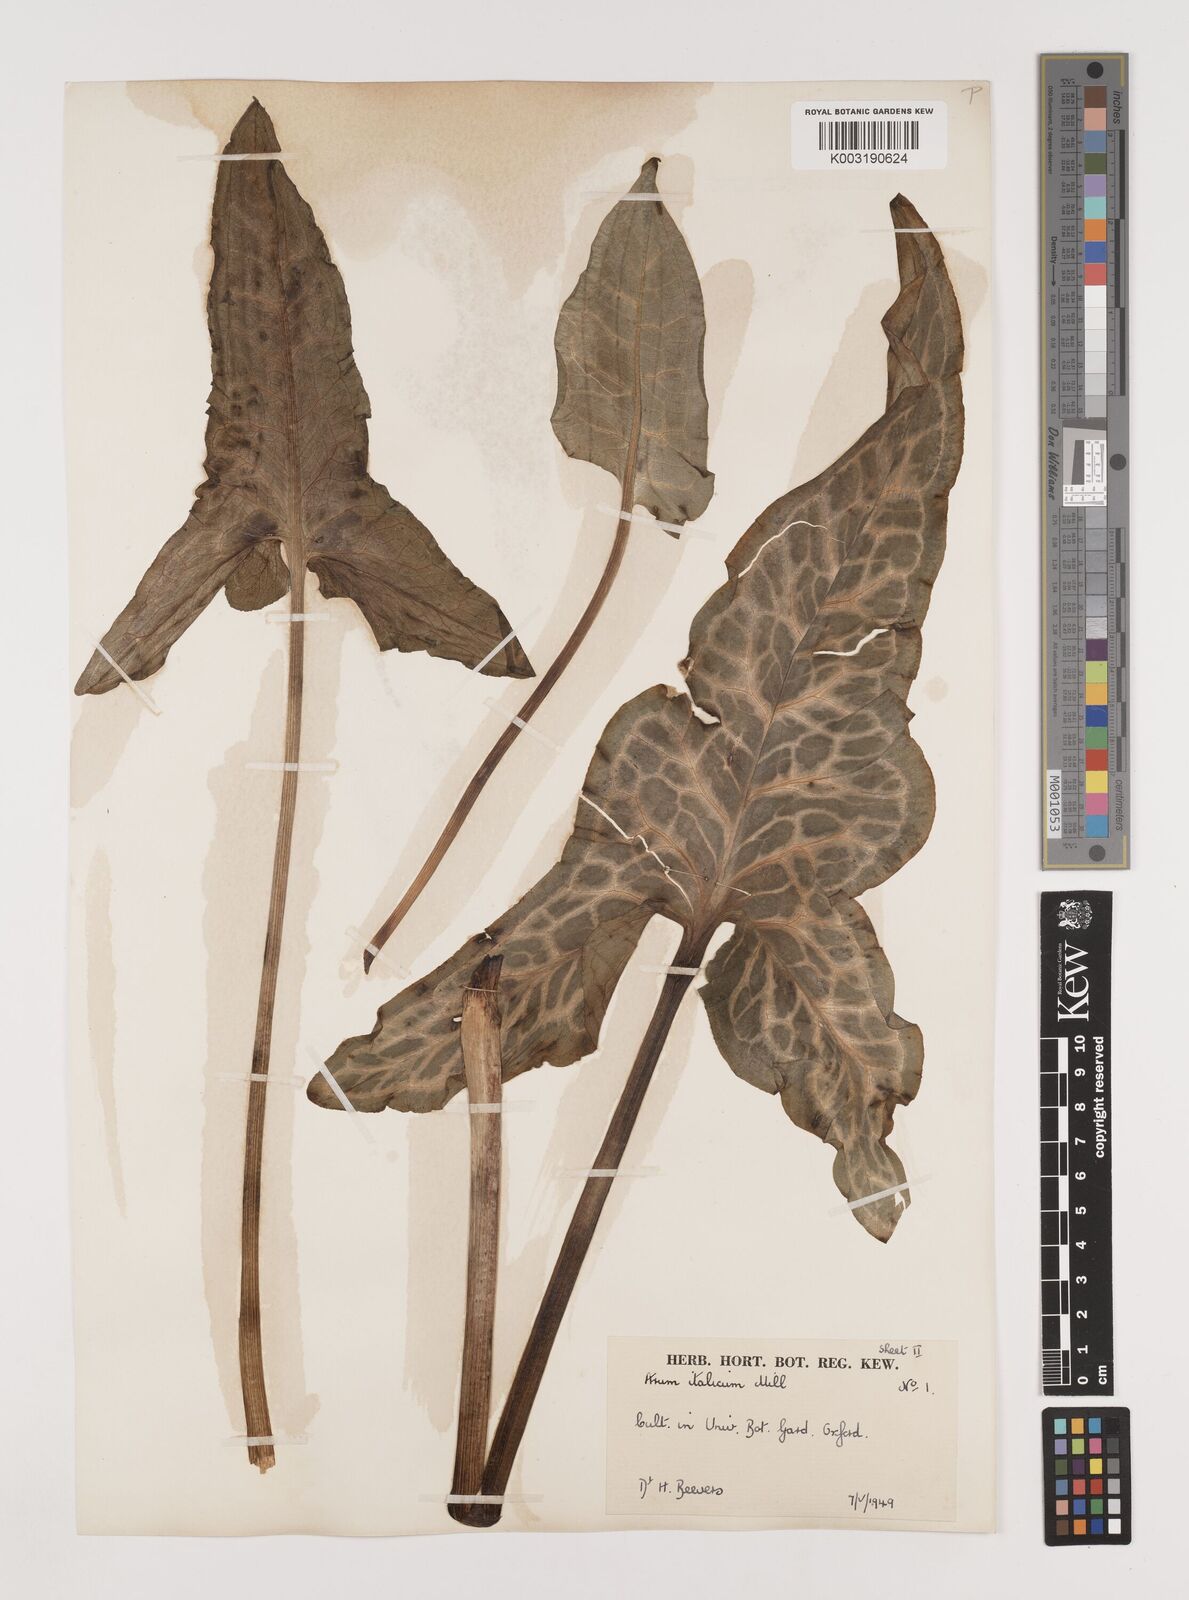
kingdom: Plantae
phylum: Tracheophyta
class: Liliopsida
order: Alismatales
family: Araceae
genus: Arum
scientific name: Arum italicum
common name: Italian lords-and-ladies
